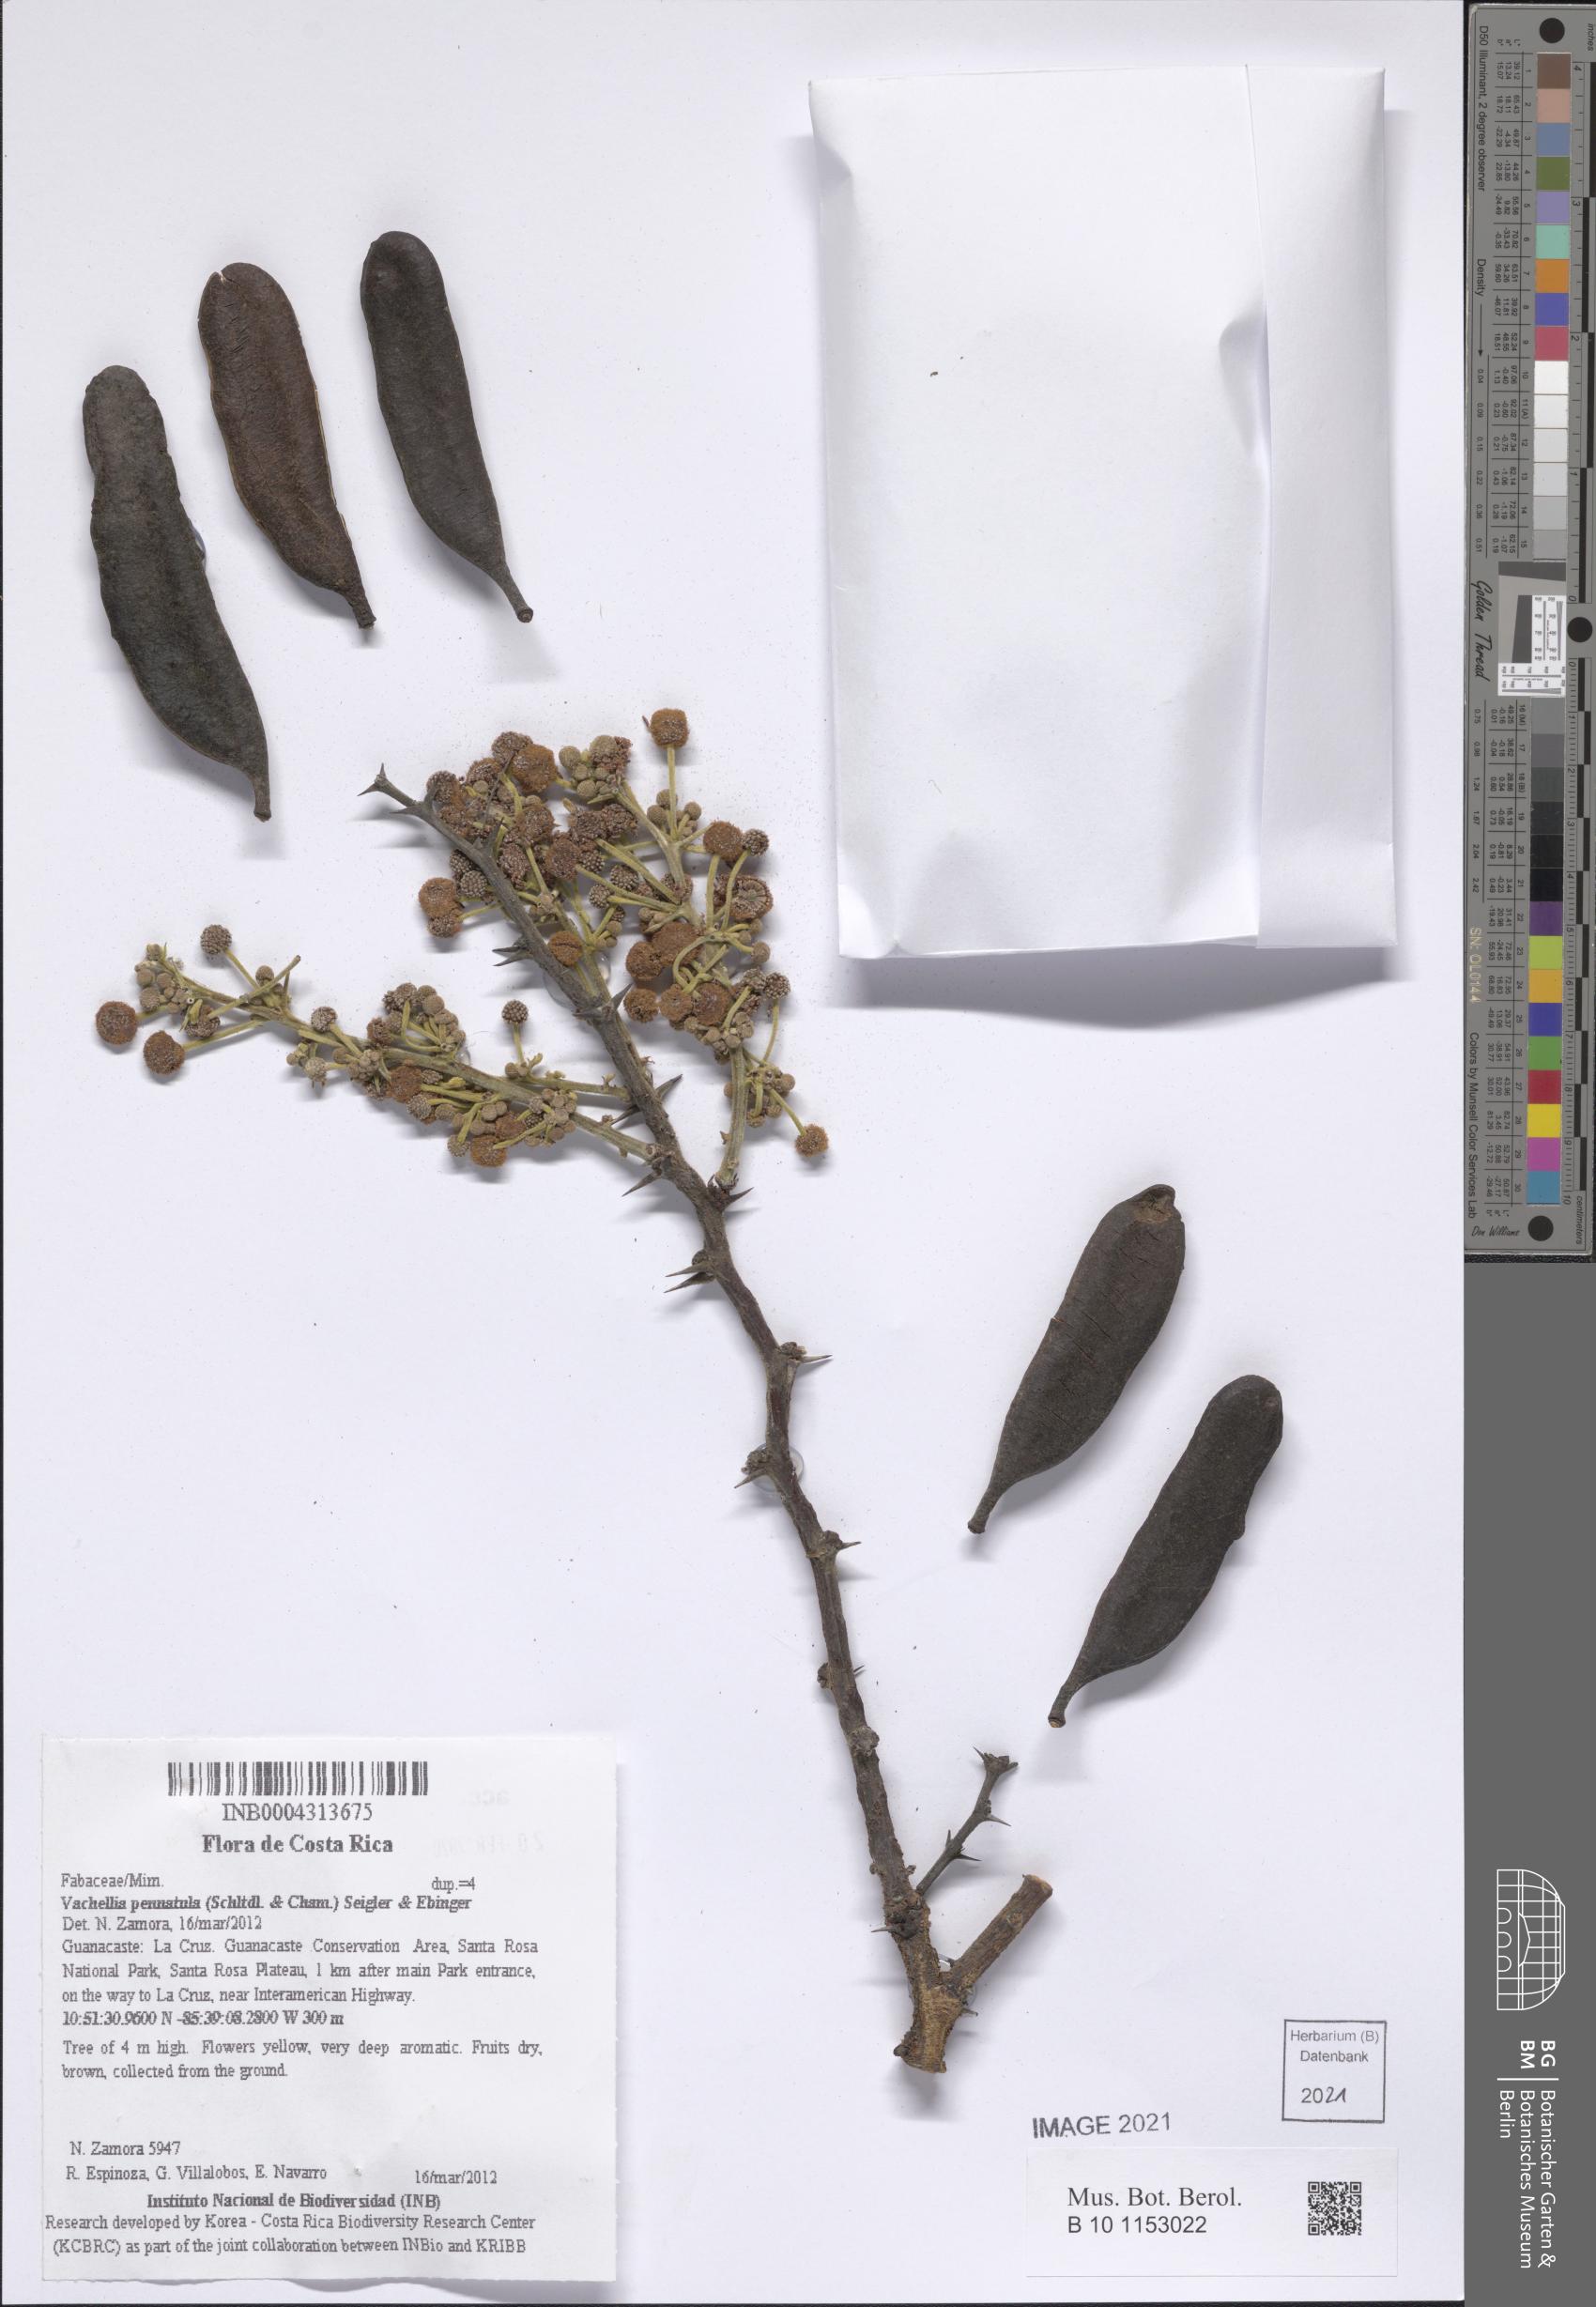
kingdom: Plantae
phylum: Tracheophyta
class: Magnoliopsida
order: Fabales
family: Fabaceae
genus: Vachellia
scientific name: Vachellia pennatula
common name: Fern-leaf acacia
